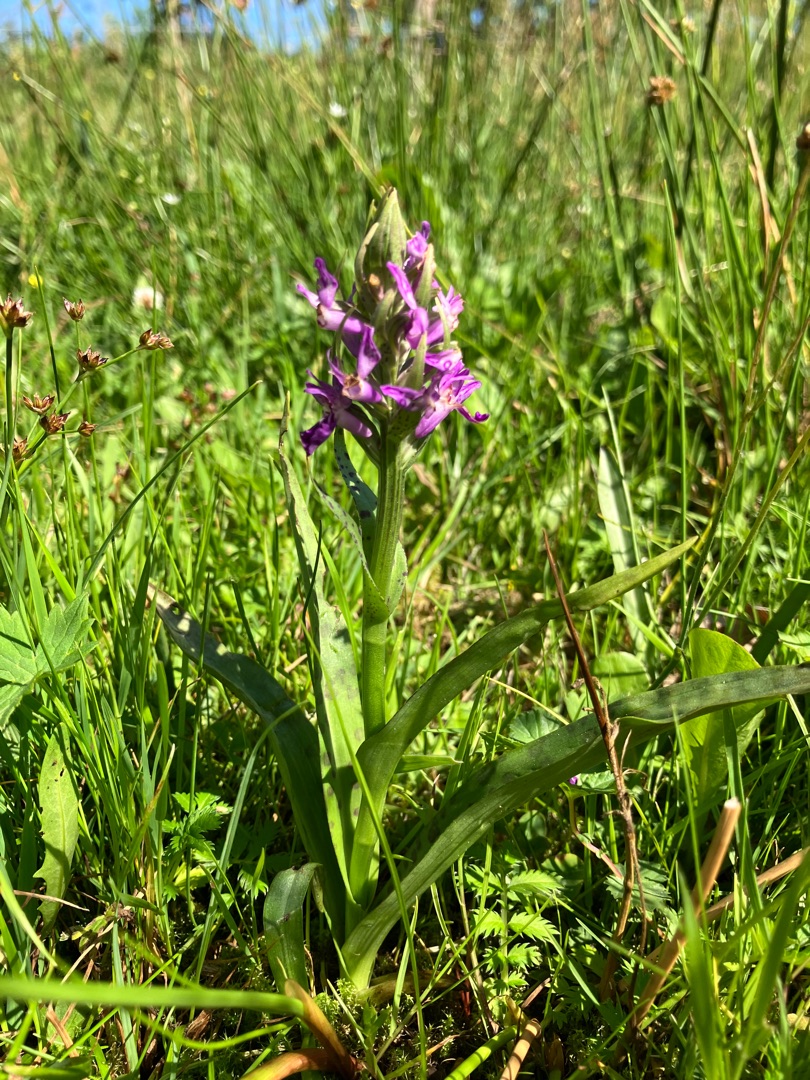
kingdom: Plantae
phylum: Tracheophyta
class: Liliopsida
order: Asparagales
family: Orchidaceae
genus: Dactylorhiza
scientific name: Dactylorhiza majalis
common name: Maj-gøgeurt
